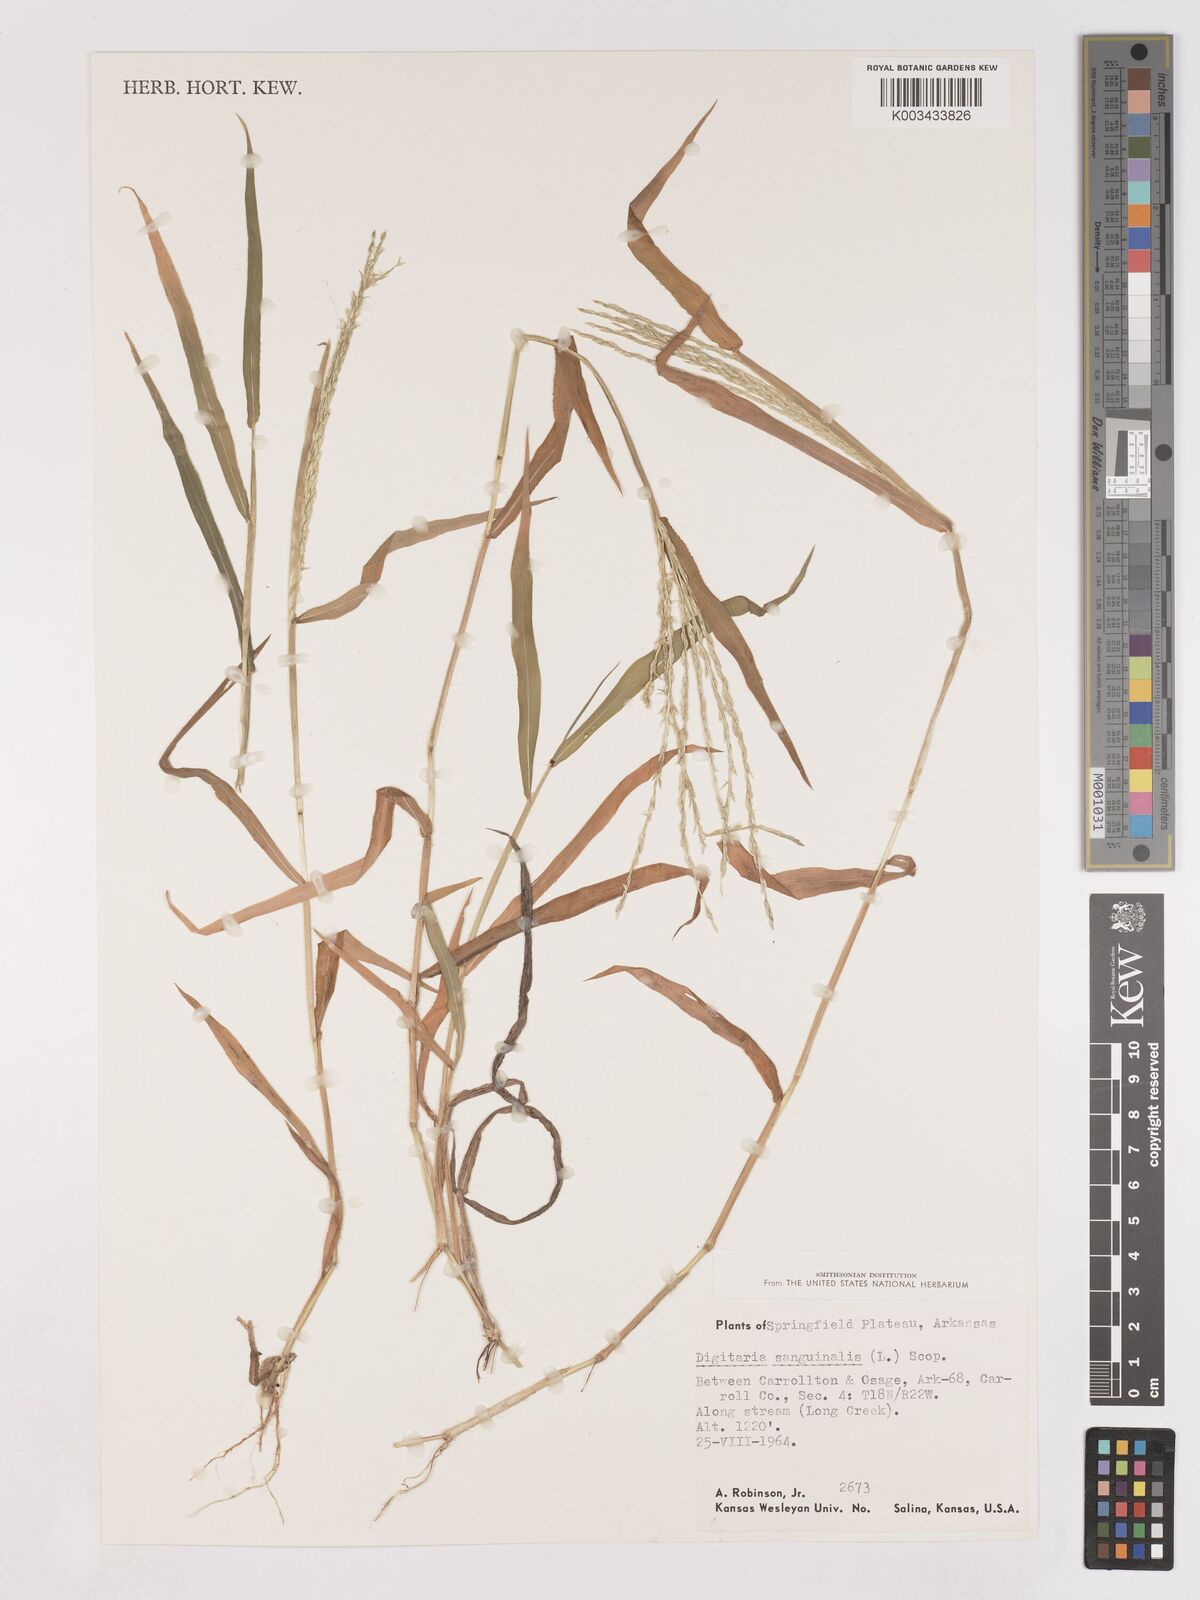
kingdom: Plantae
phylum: Tracheophyta
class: Liliopsida
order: Poales
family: Poaceae
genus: Digitaria
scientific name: Digitaria ciliaris
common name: Tropical finger-grass
